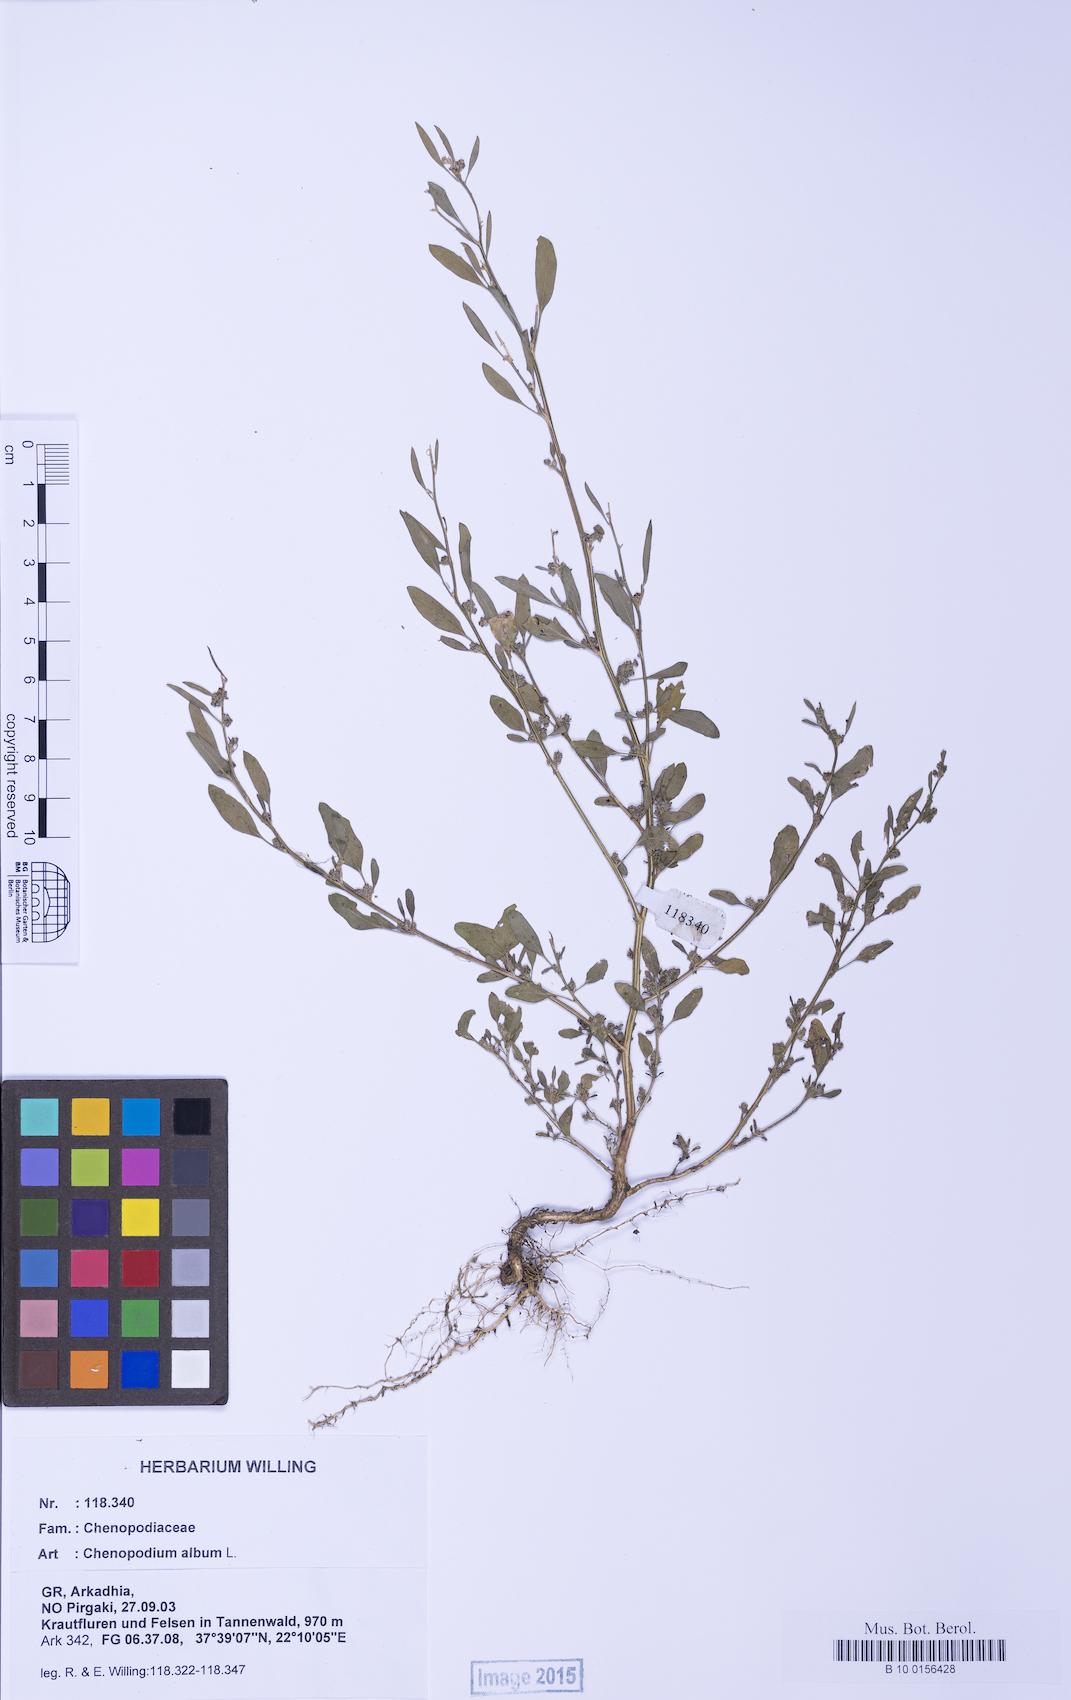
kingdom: Plantae
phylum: Tracheophyta
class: Magnoliopsida
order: Caryophyllales
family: Amaranthaceae
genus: Chenopodium
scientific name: Chenopodium striatiforme
